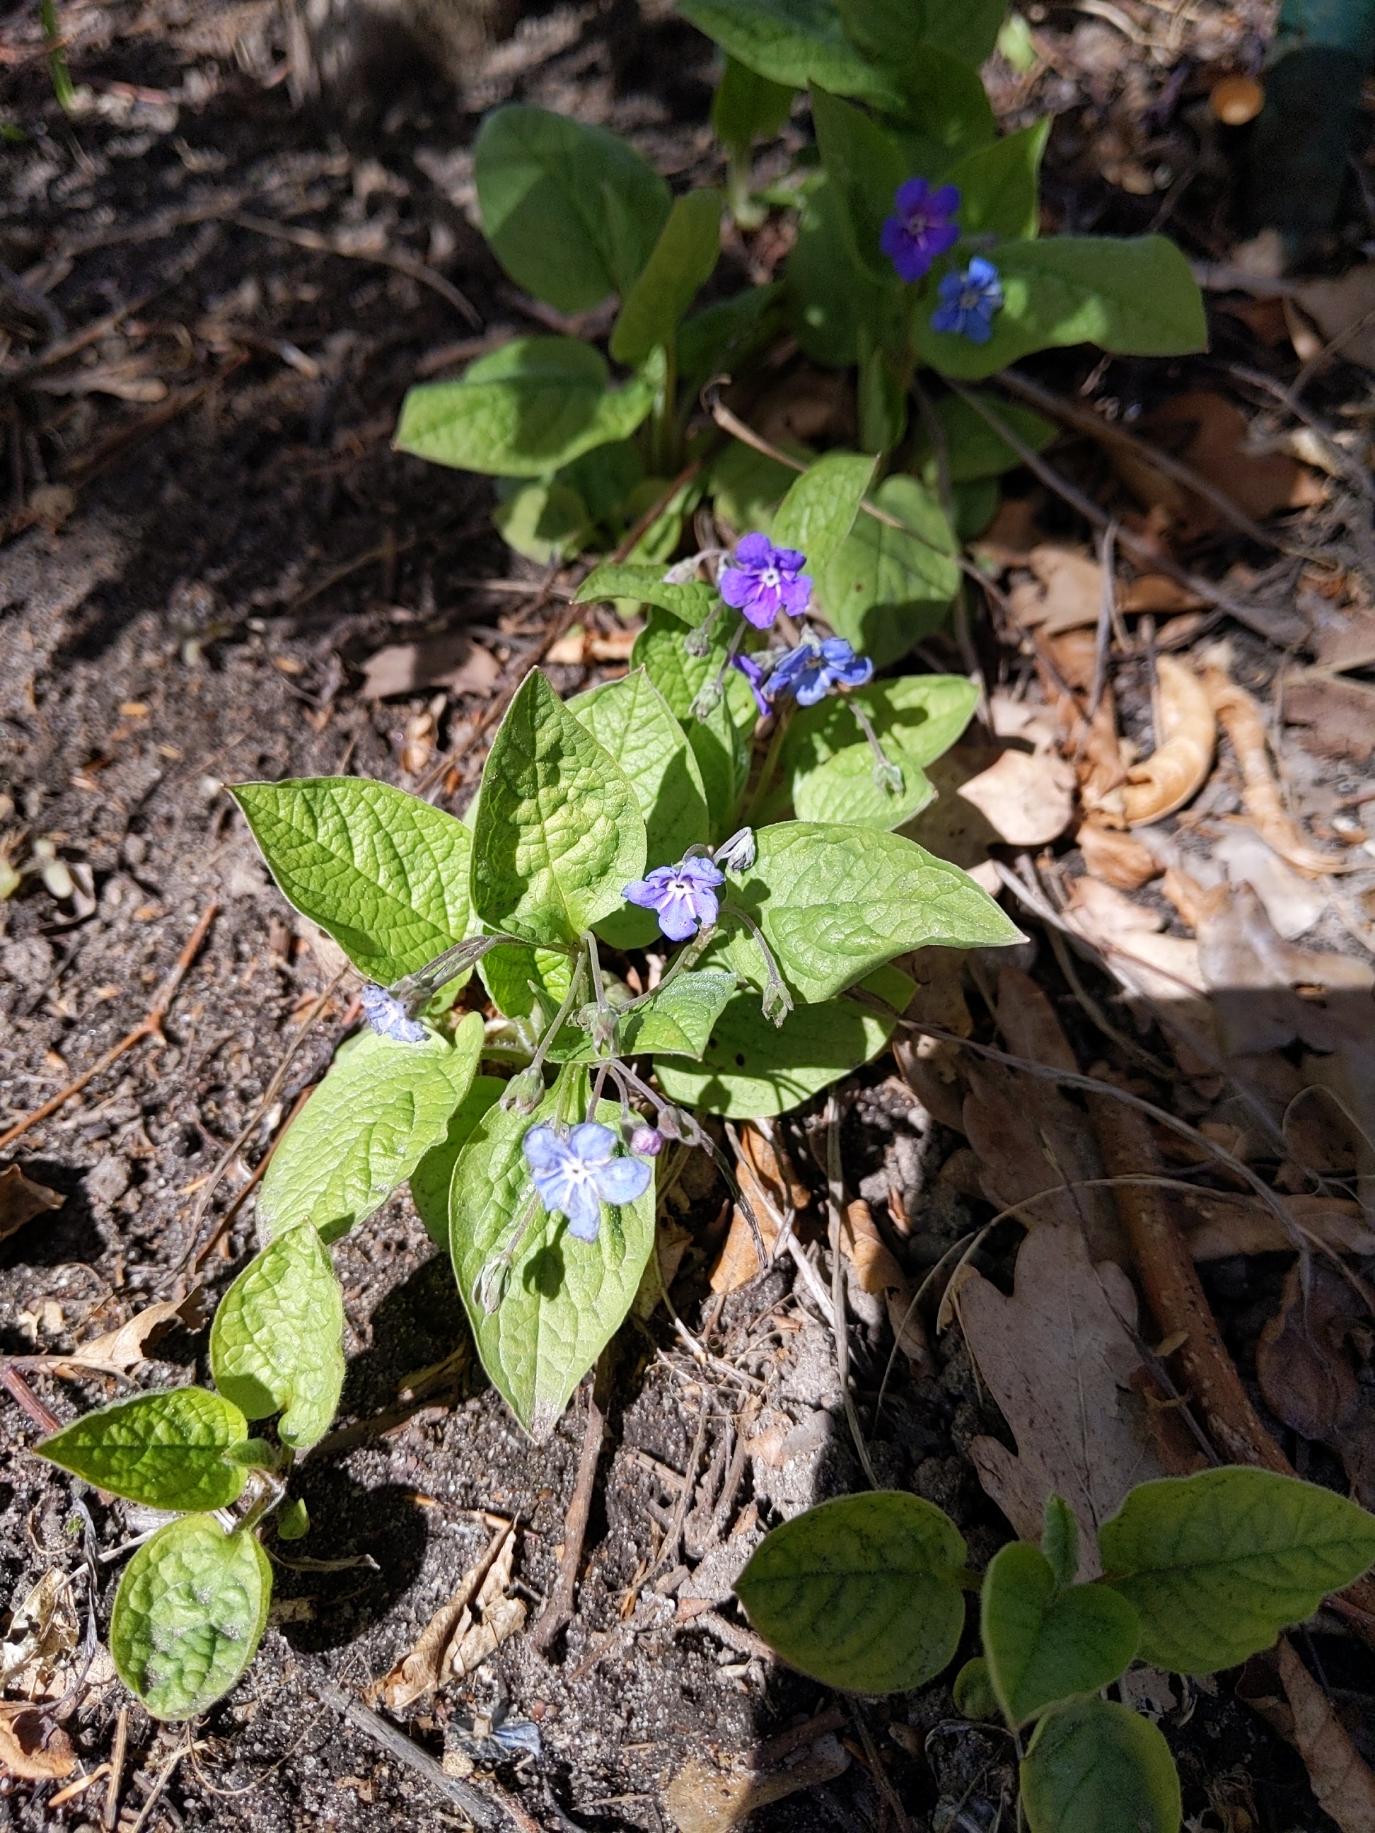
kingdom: Plantae
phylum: Tracheophyta
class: Magnoliopsida
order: Boraginales
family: Boraginaceae
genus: Omphalodes
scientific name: Omphalodes verna
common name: Vår-kærminde
